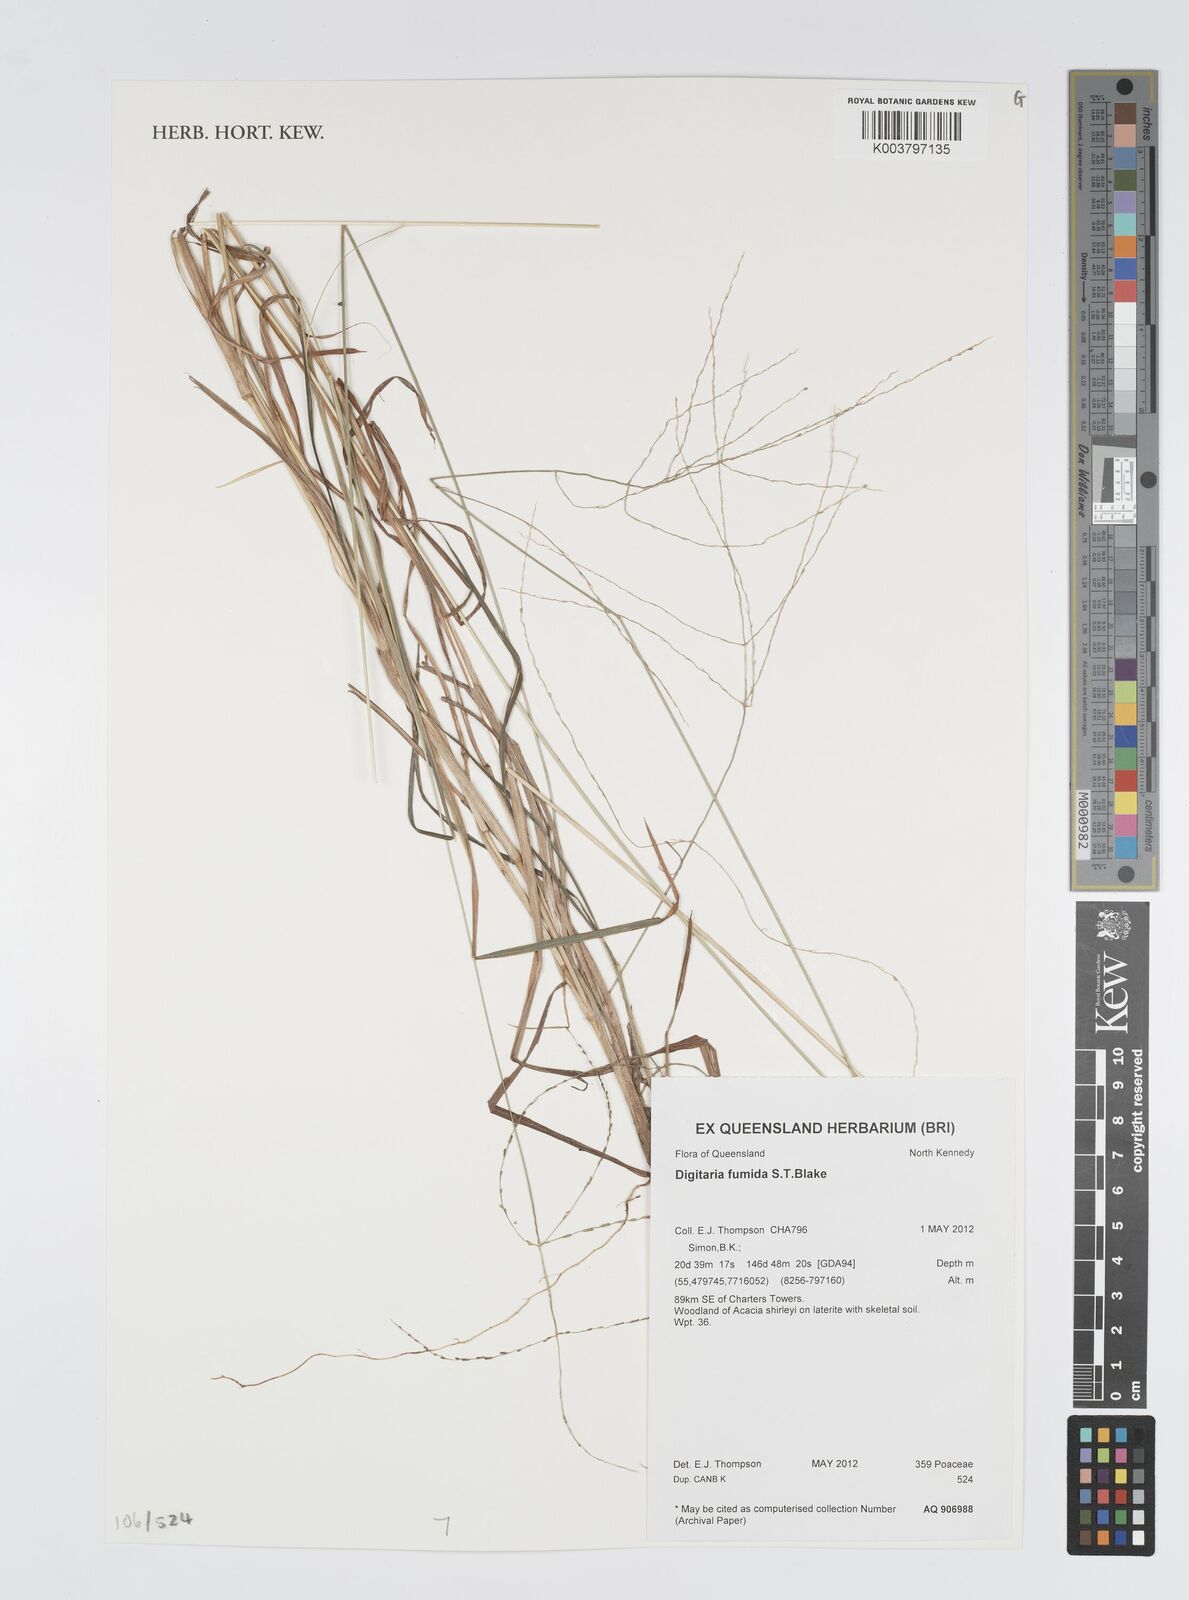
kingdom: Plantae
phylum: Tracheophyta
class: Liliopsida
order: Poales
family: Poaceae
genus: Digitaria
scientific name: Digitaria breviglumis
